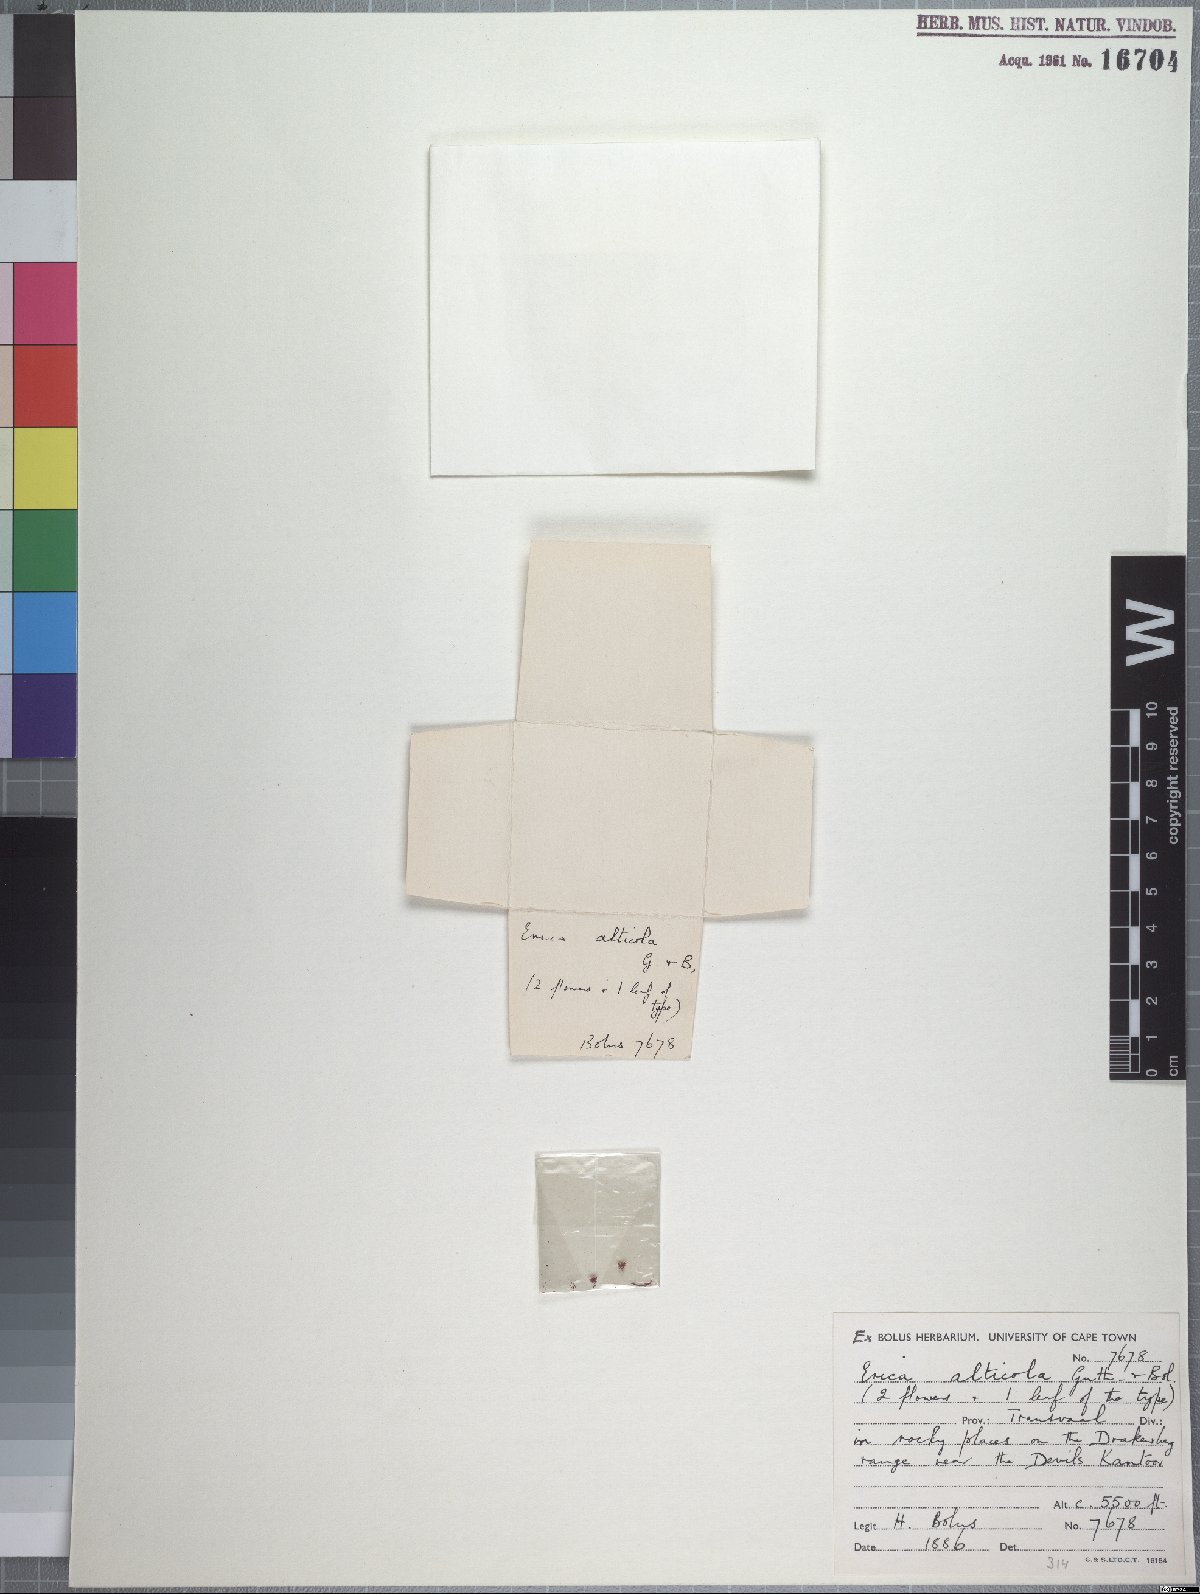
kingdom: Plantae
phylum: Tracheophyta
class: Magnoliopsida
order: Ericales
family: Ericaceae
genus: Erica
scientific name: Erica alticola
